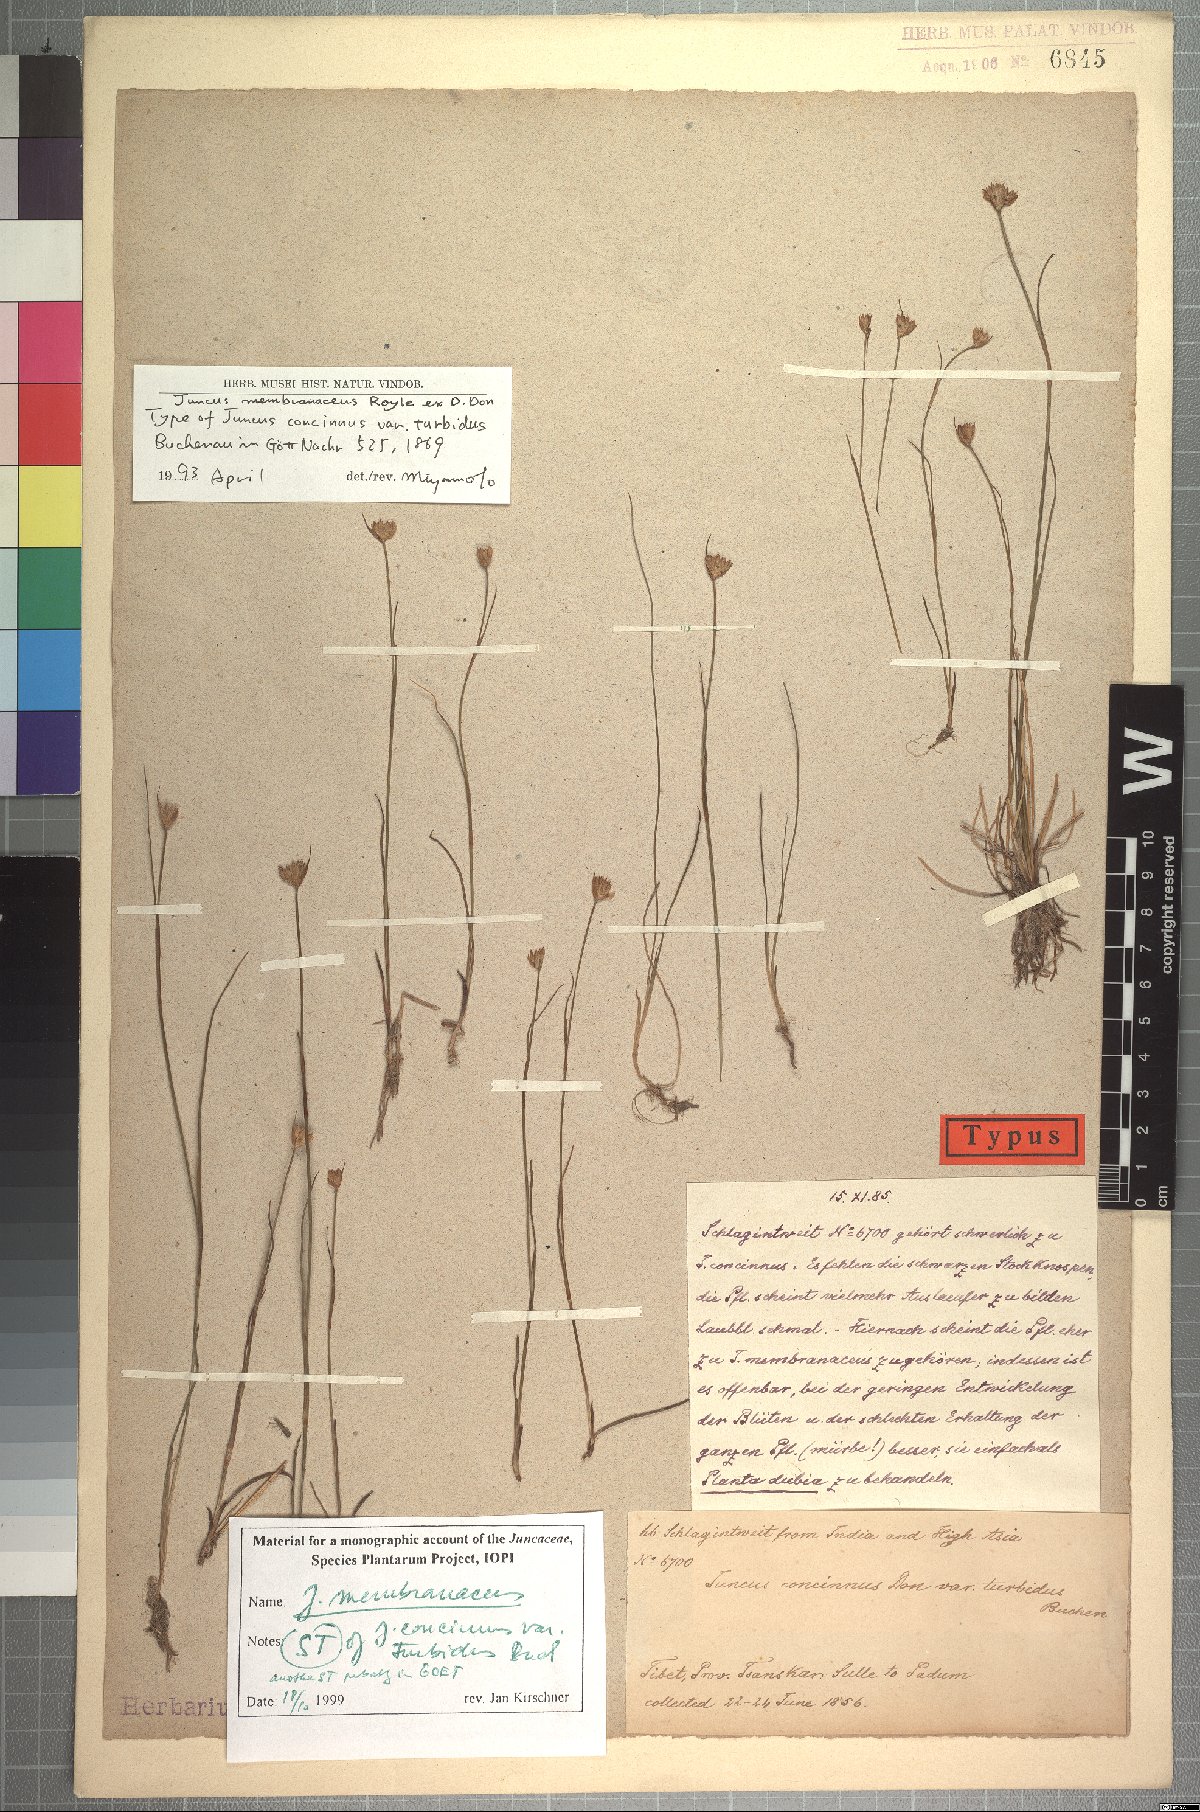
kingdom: Plantae
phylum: Tracheophyta
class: Liliopsida
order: Poales
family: Juncaceae
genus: Juncus
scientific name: Juncus membranaceus
